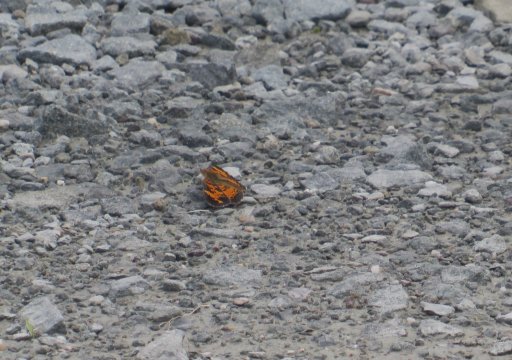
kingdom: Animalia
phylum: Arthropoda
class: Insecta
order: Lepidoptera
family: Nymphalidae
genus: Phyciodes
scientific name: Phyciodes tharos
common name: Pearl Crescent
